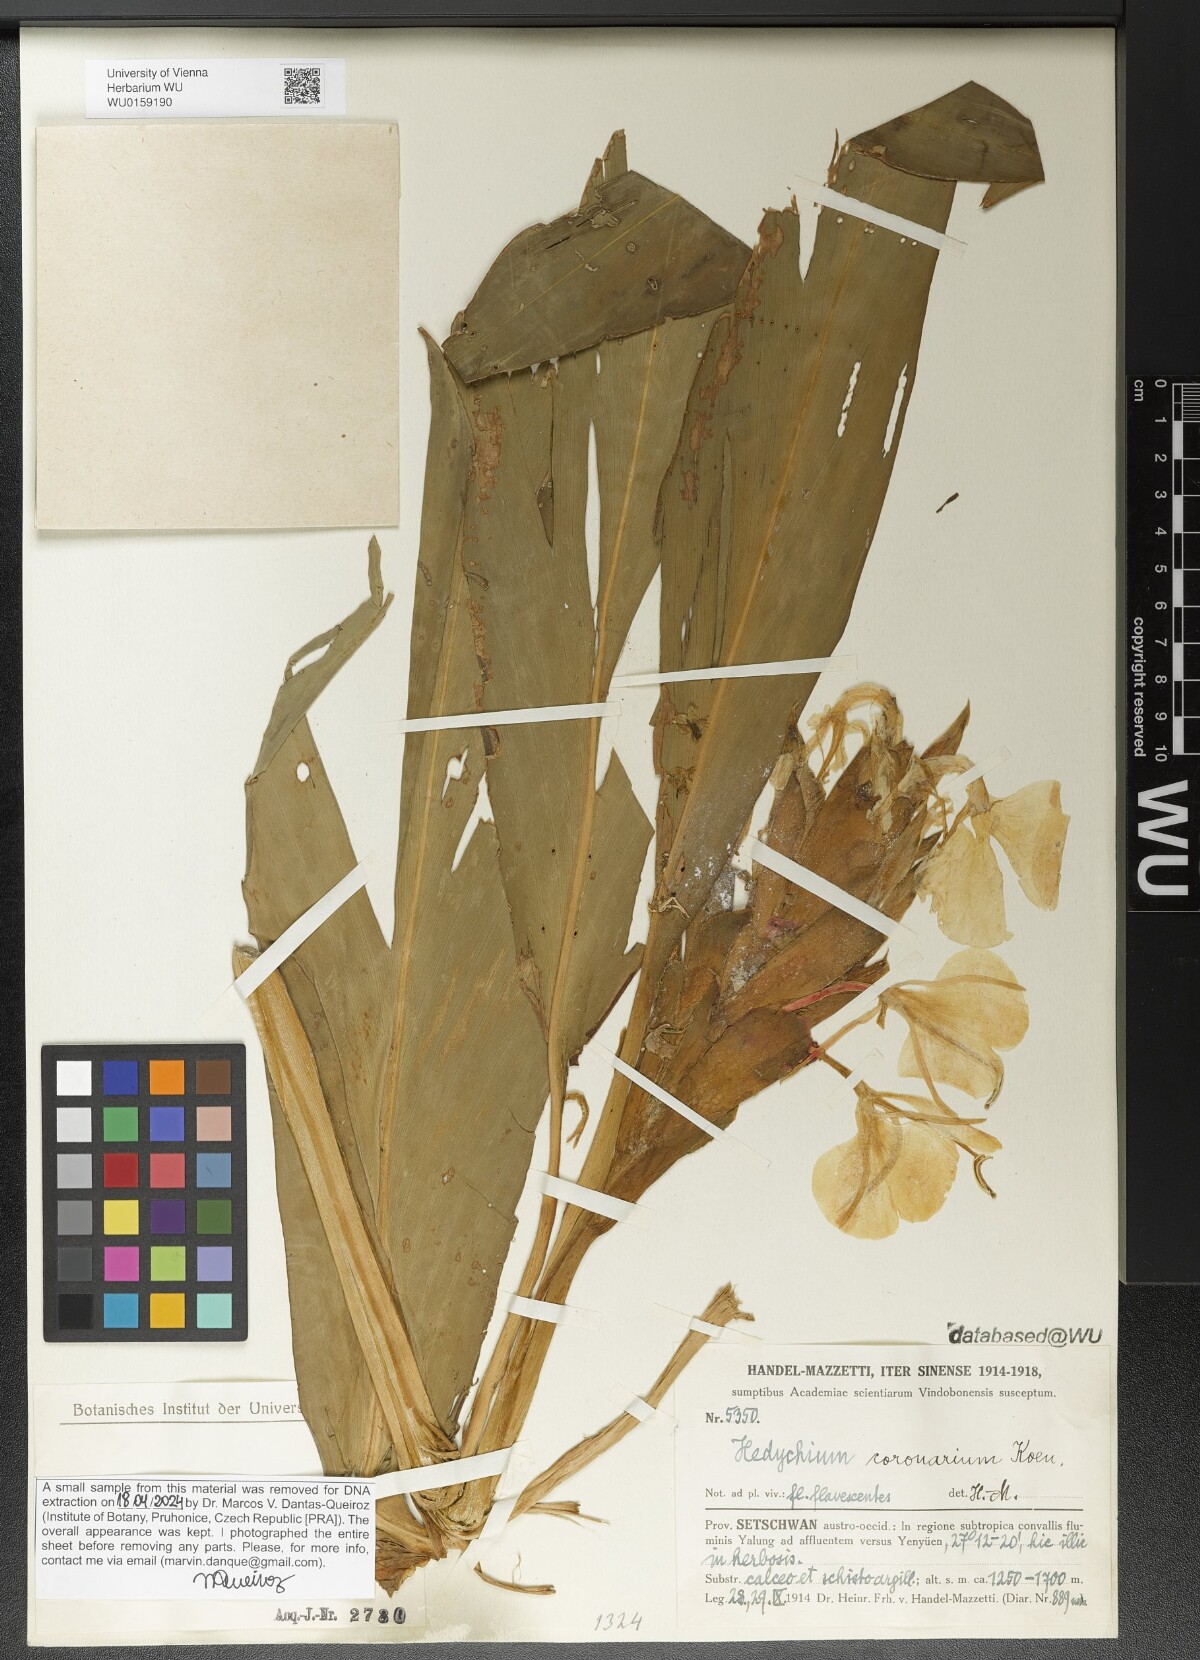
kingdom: Plantae
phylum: Tracheophyta
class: Liliopsida
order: Zingiberales
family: Zingiberaceae
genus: Hedychium
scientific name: Hedychium coronarium
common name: White garland-lily
